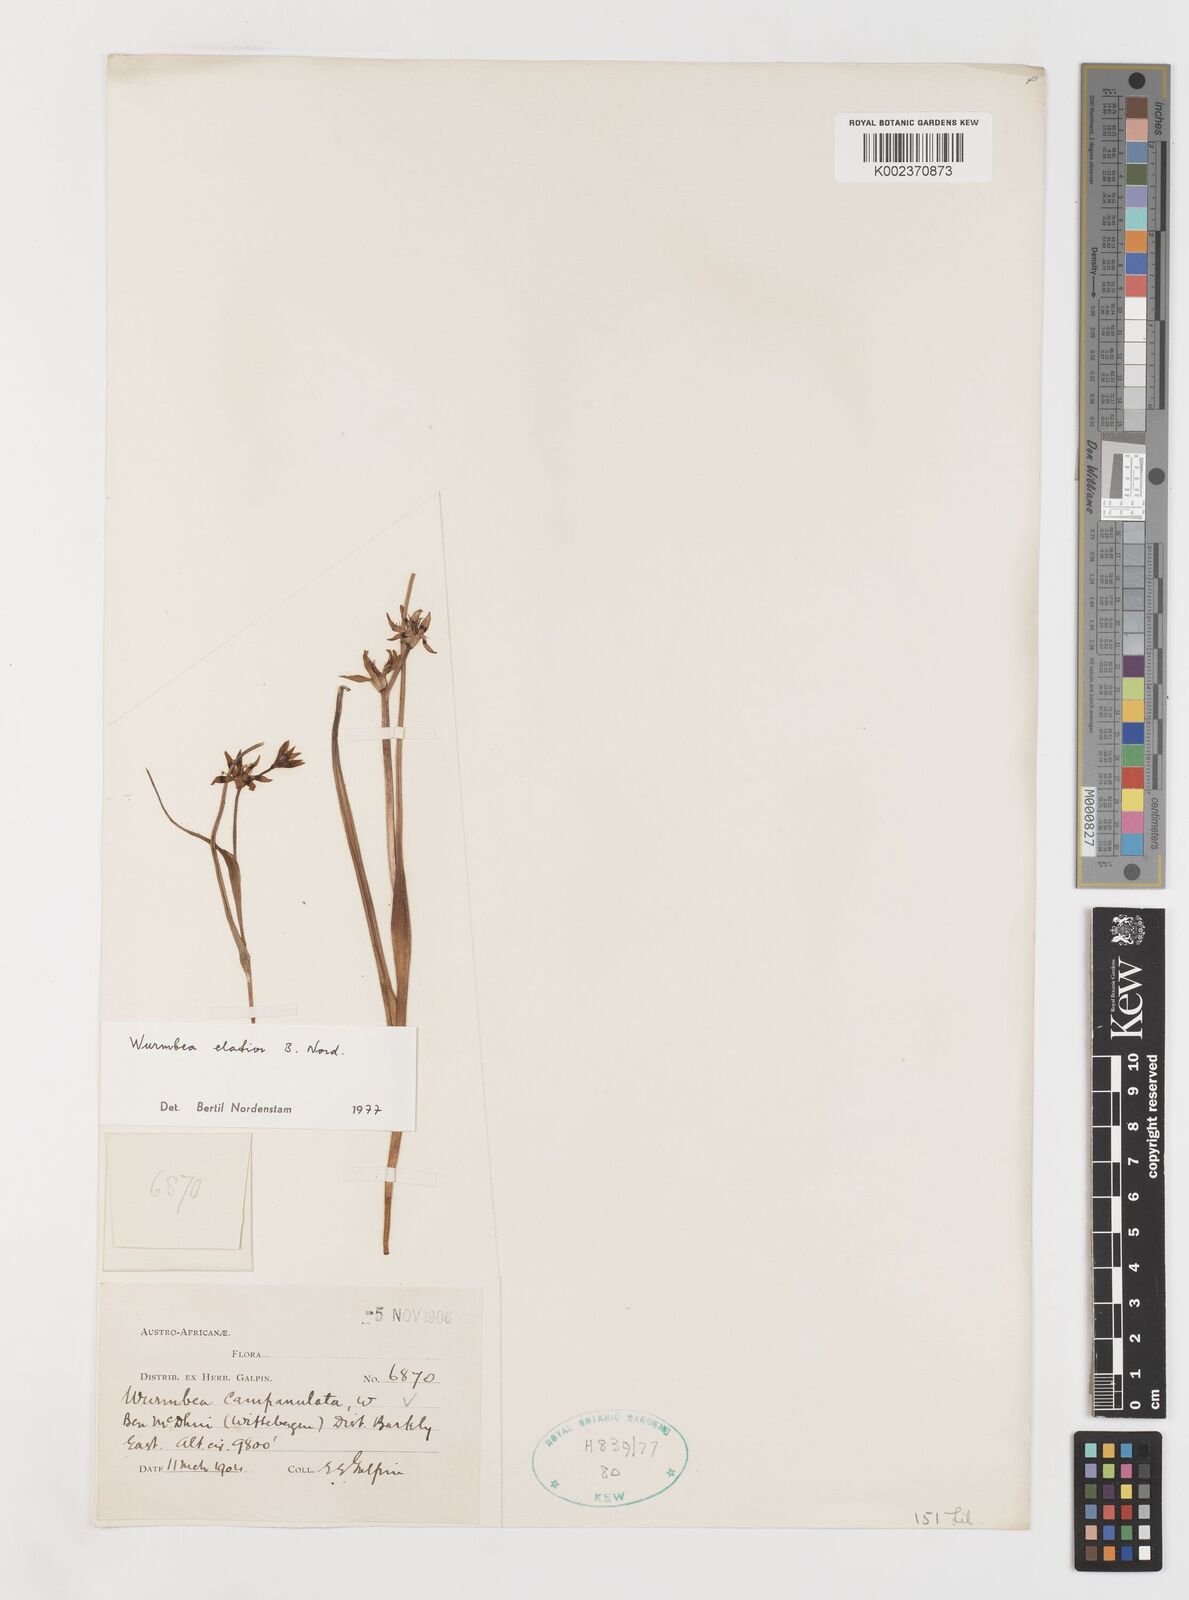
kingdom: Plantae
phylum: Tracheophyta
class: Liliopsida
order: Liliales
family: Colchicaceae
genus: Wurmbea
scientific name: Wurmbea elatior
